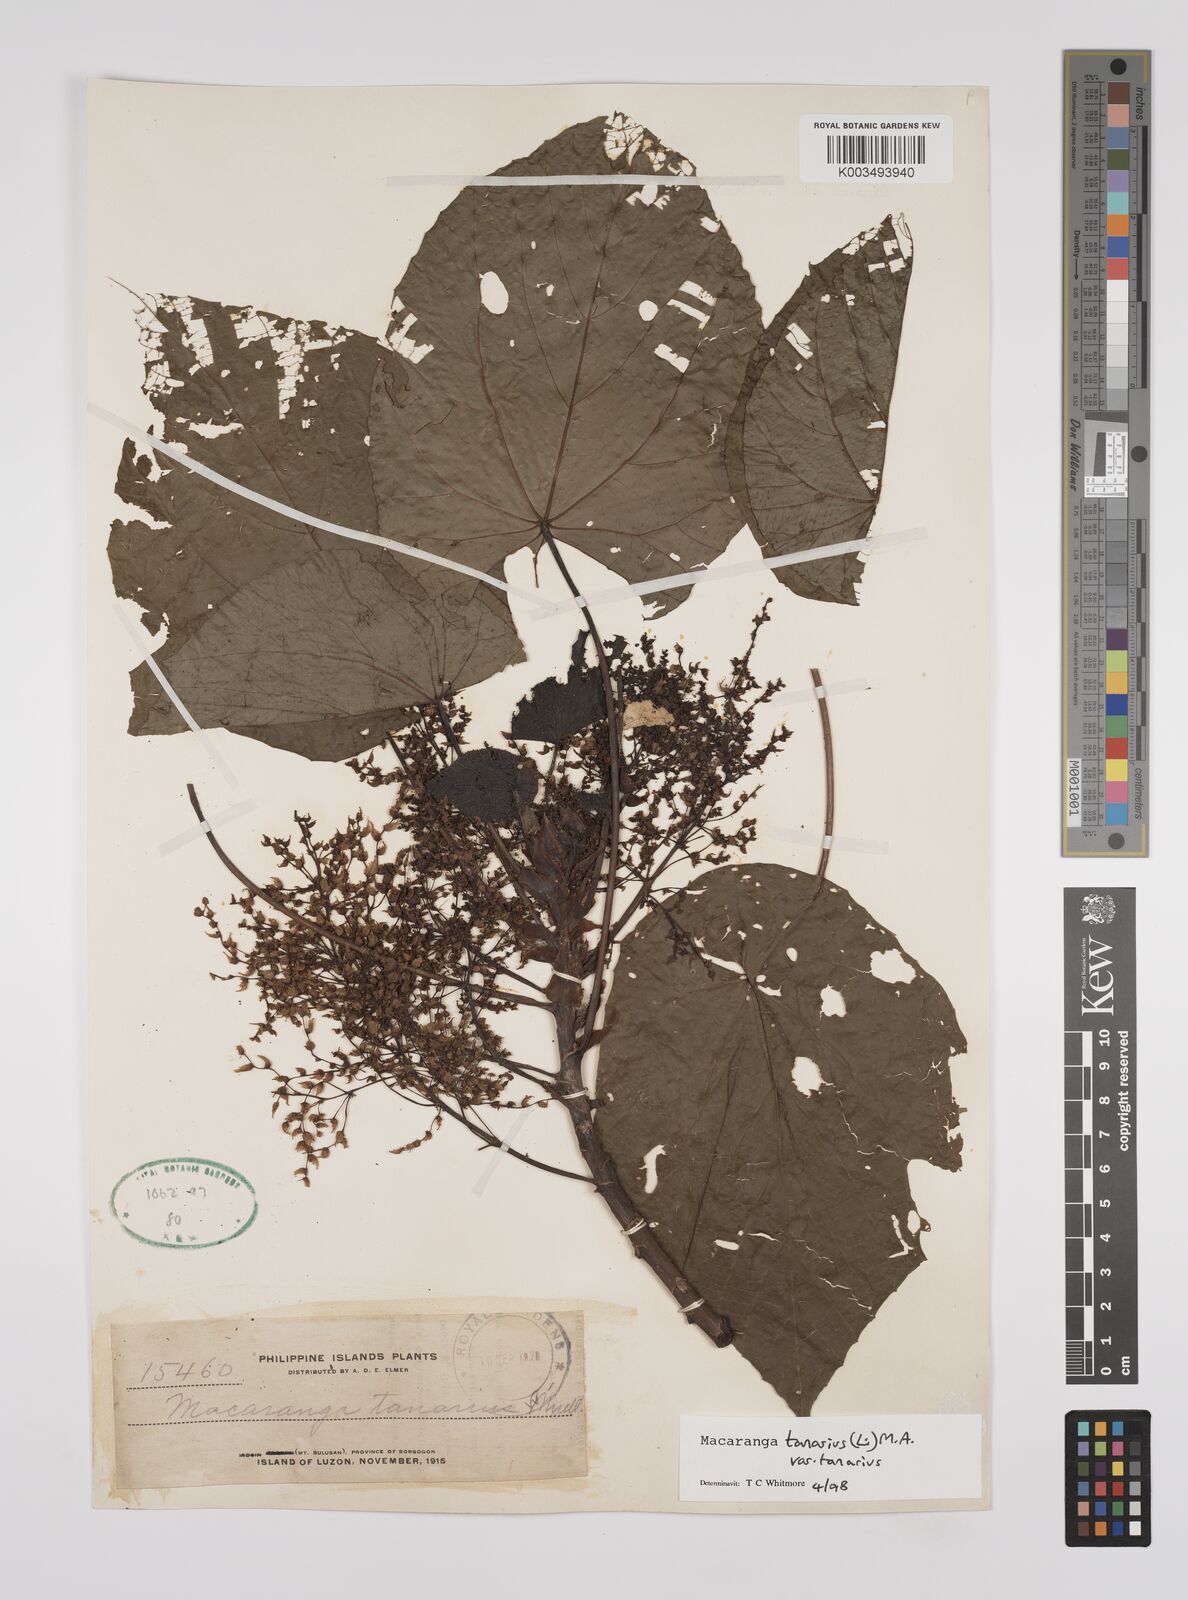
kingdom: Plantae
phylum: Tracheophyta
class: Magnoliopsida
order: Malpighiales
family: Euphorbiaceae
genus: Macaranga
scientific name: Macaranga tanarius
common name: Parasol leaf tree
